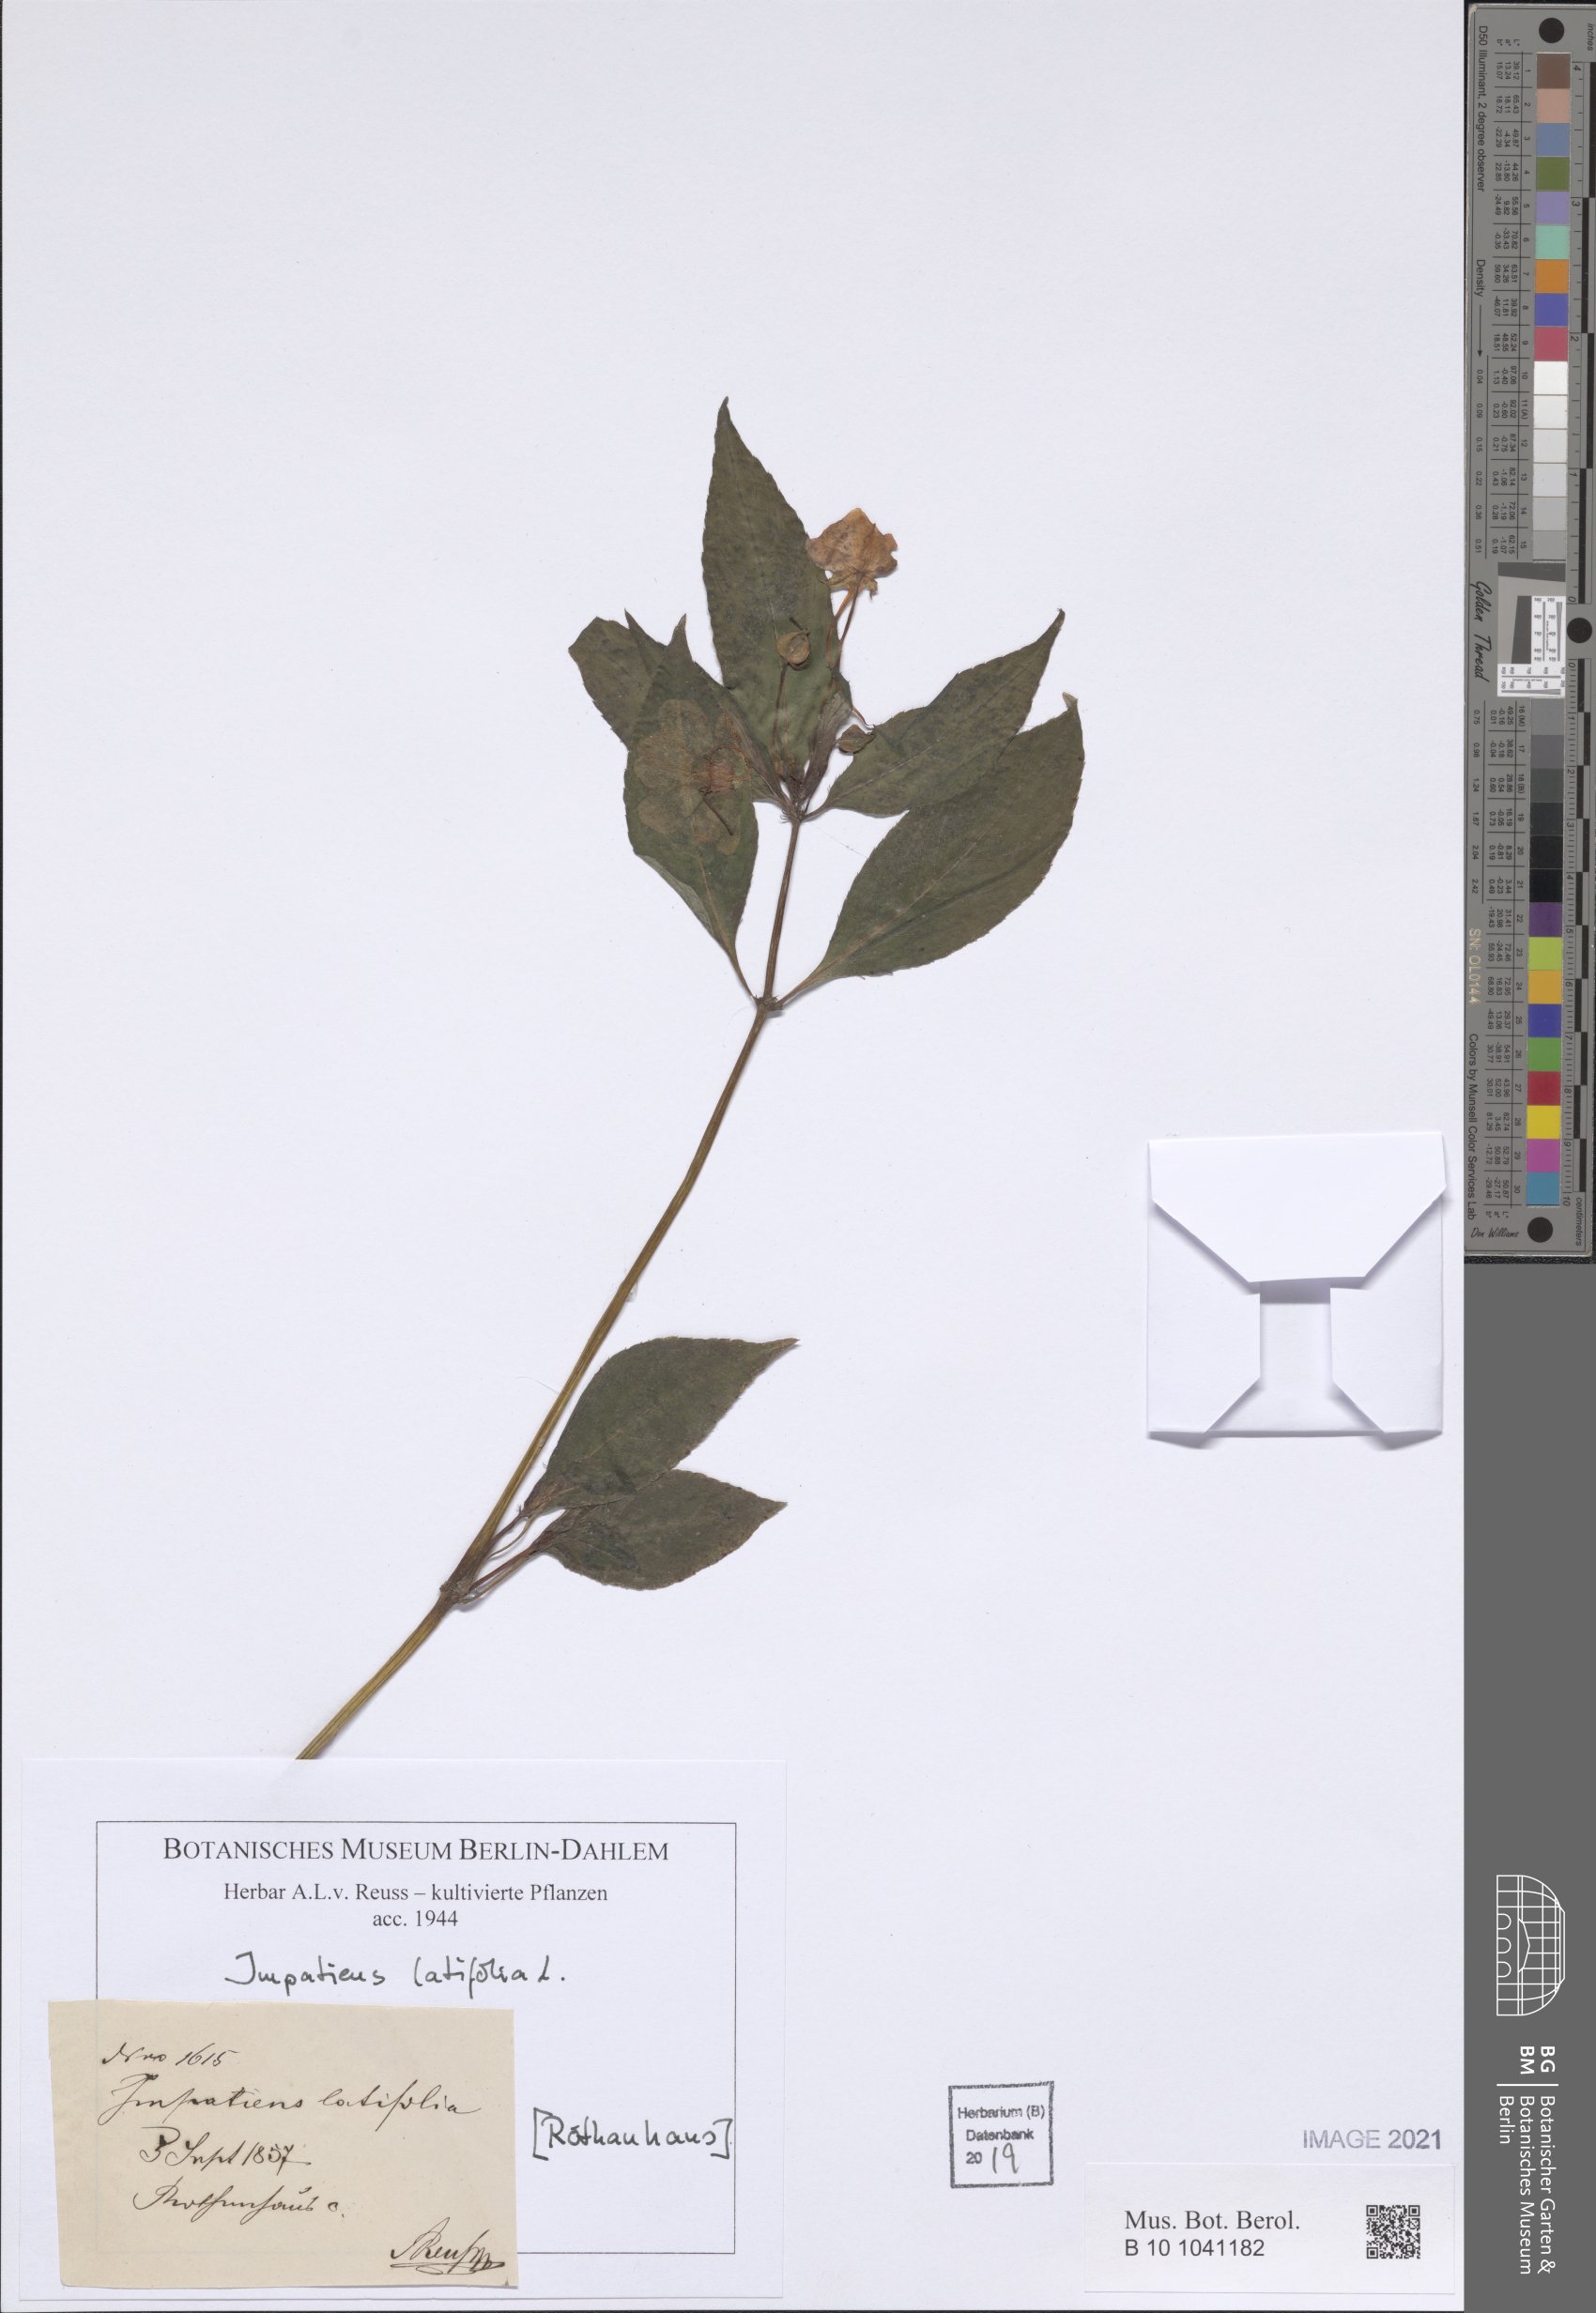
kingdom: Plantae
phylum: Tracheophyta
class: Magnoliopsida
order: Ericales
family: Balsaminaceae
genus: Impatiens
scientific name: Impatiens latifolia
